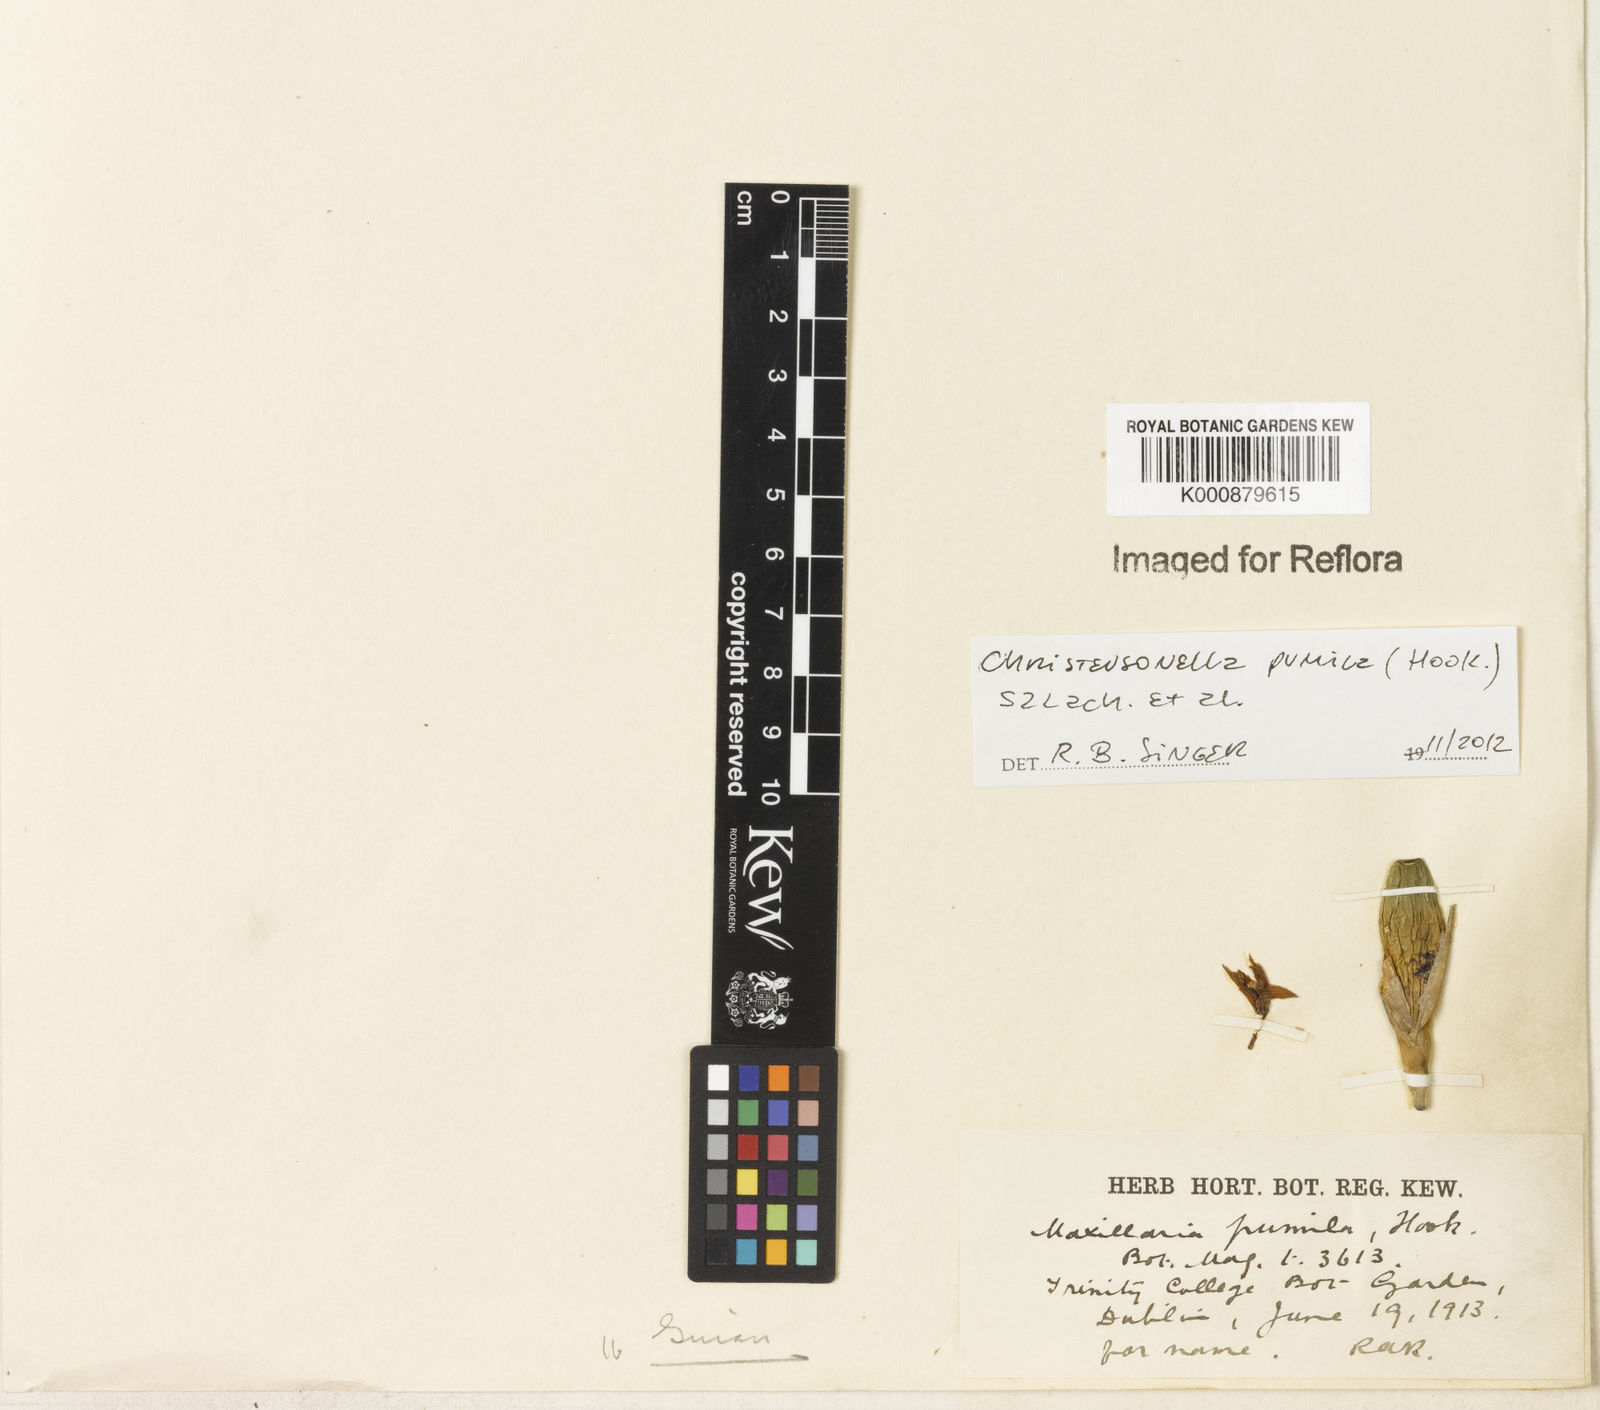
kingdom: Plantae
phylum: Tracheophyta
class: Liliopsida
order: Asparagales
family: Orchidaceae
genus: Maxillaria
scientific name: Maxillaria pumila
